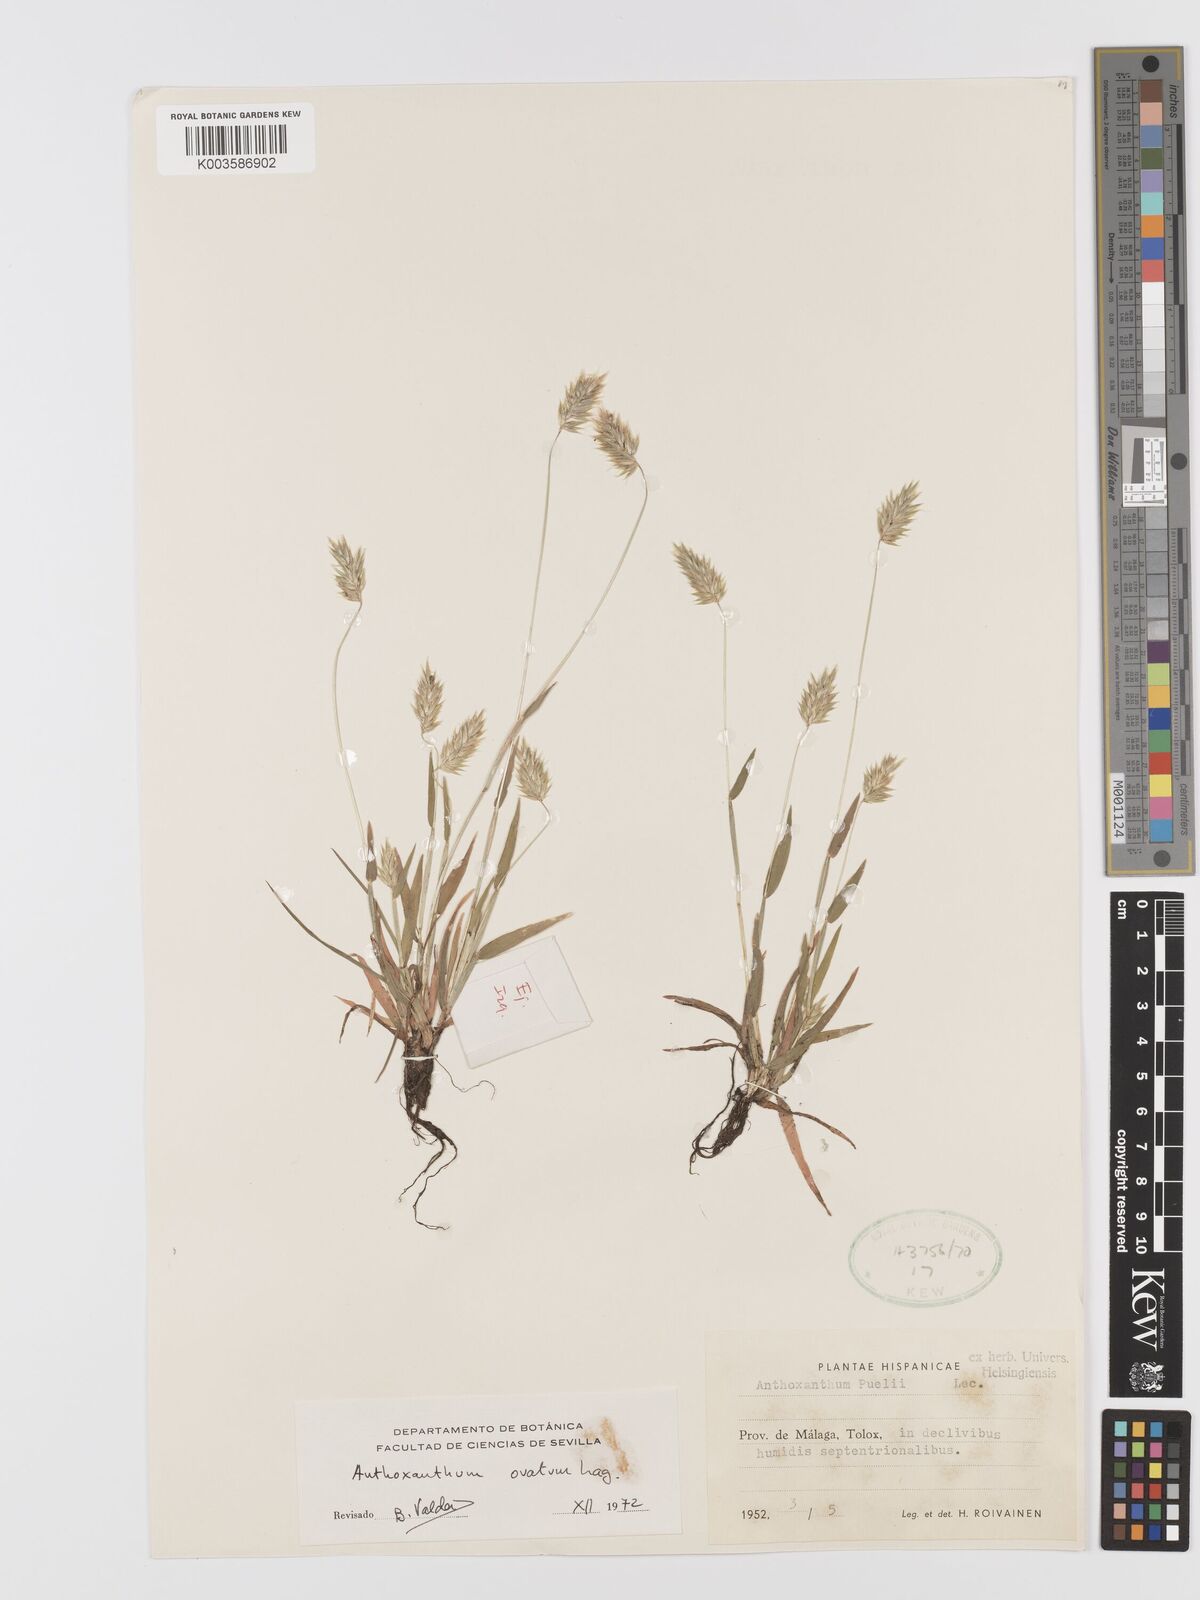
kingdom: Plantae
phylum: Tracheophyta
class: Liliopsida
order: Poales
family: Poaceae
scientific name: Poaceae
